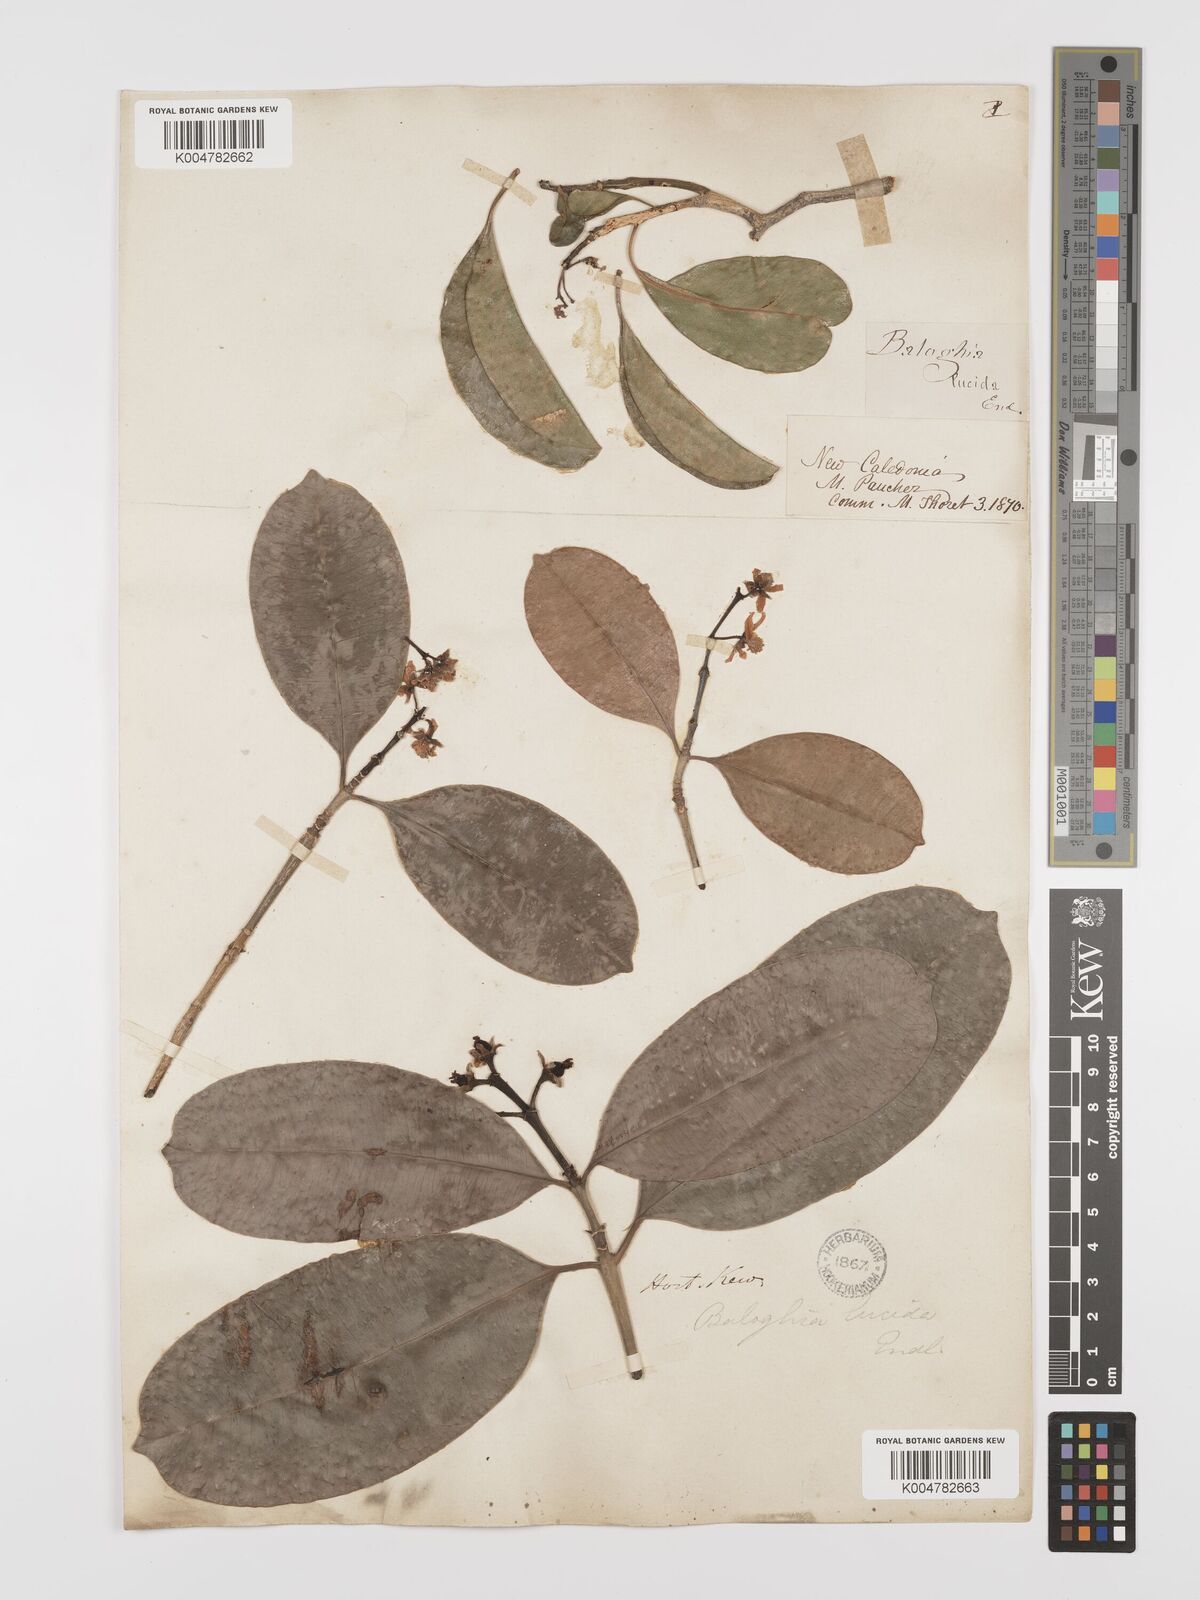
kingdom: Plantae
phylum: Tracheophyta
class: Magnoliopsida
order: Malpighiales
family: Euphorbiaceae
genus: Baloghia
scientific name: Baloghia inophylla
